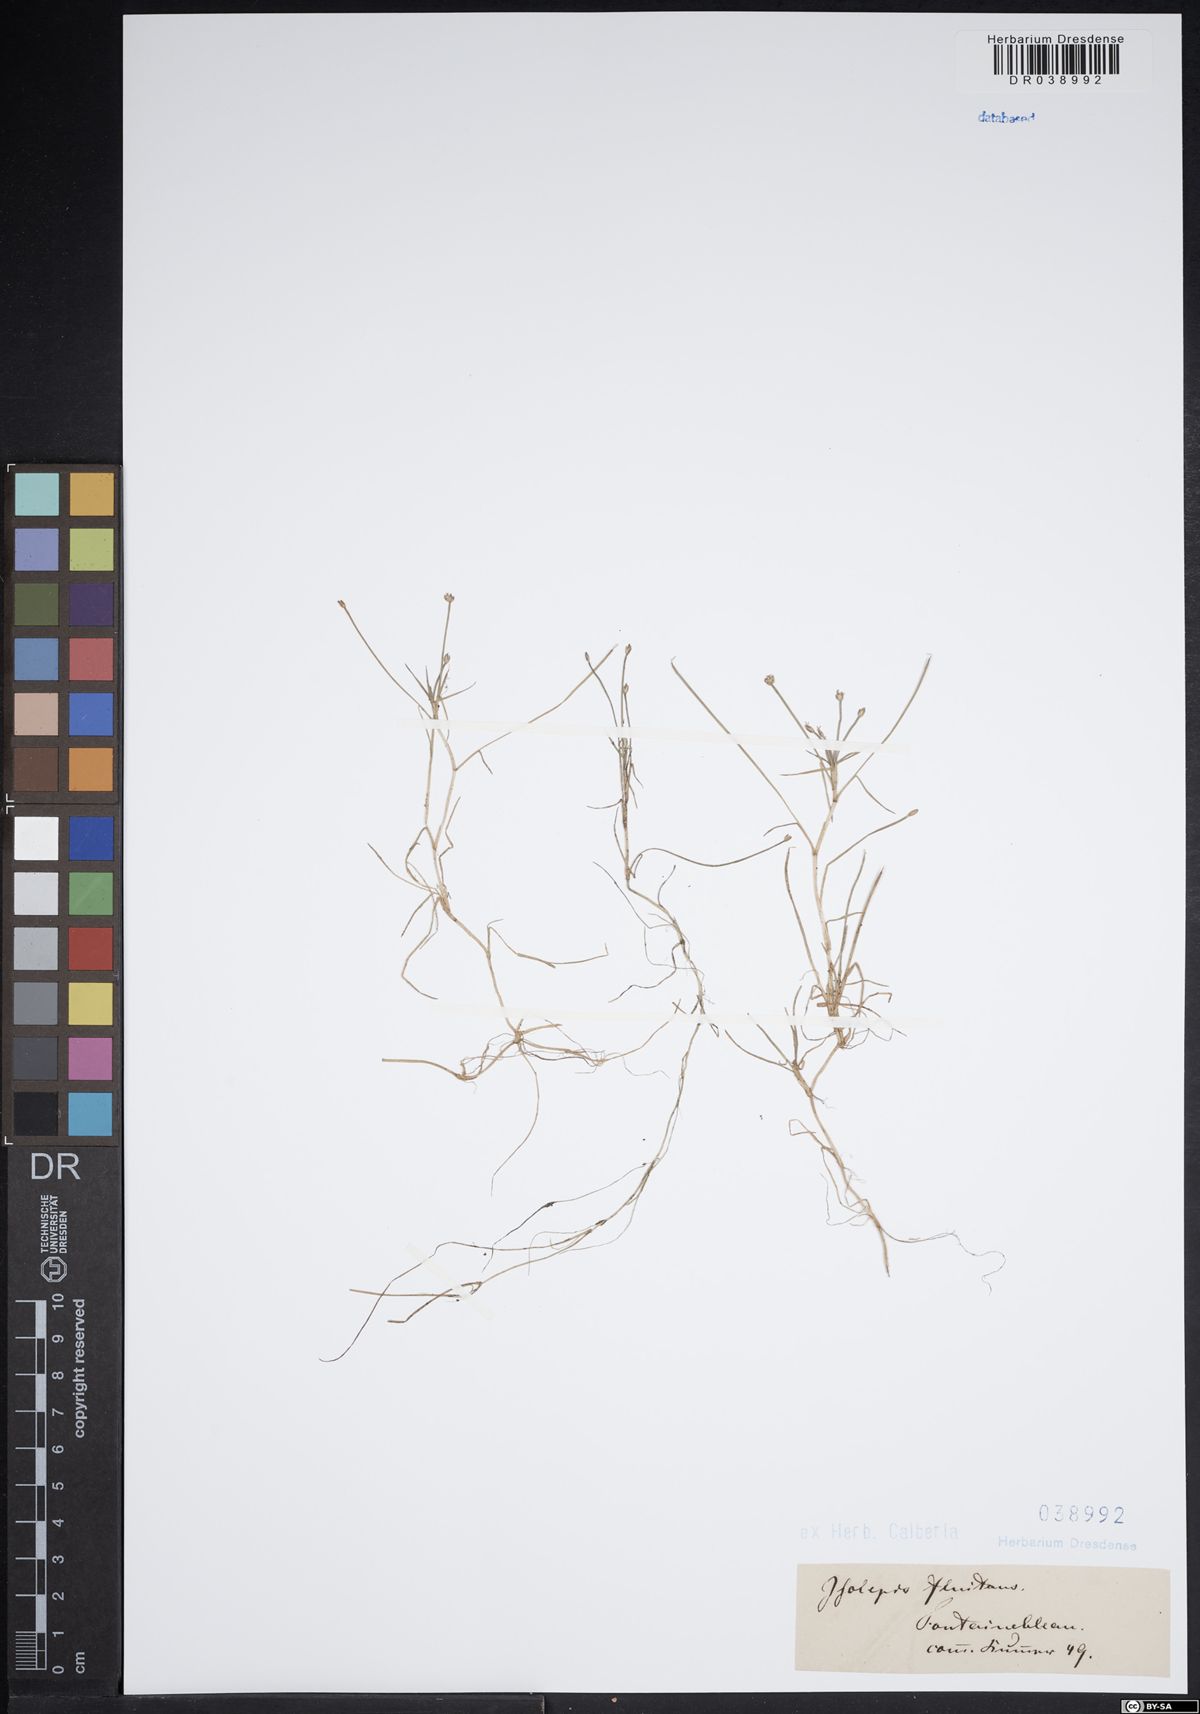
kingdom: Plantae
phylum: Tracheophyta
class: Liliopsida
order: Poales
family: Cyperaceae
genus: Isolepis
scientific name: Isolepis fluitans
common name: Floating club-rush
